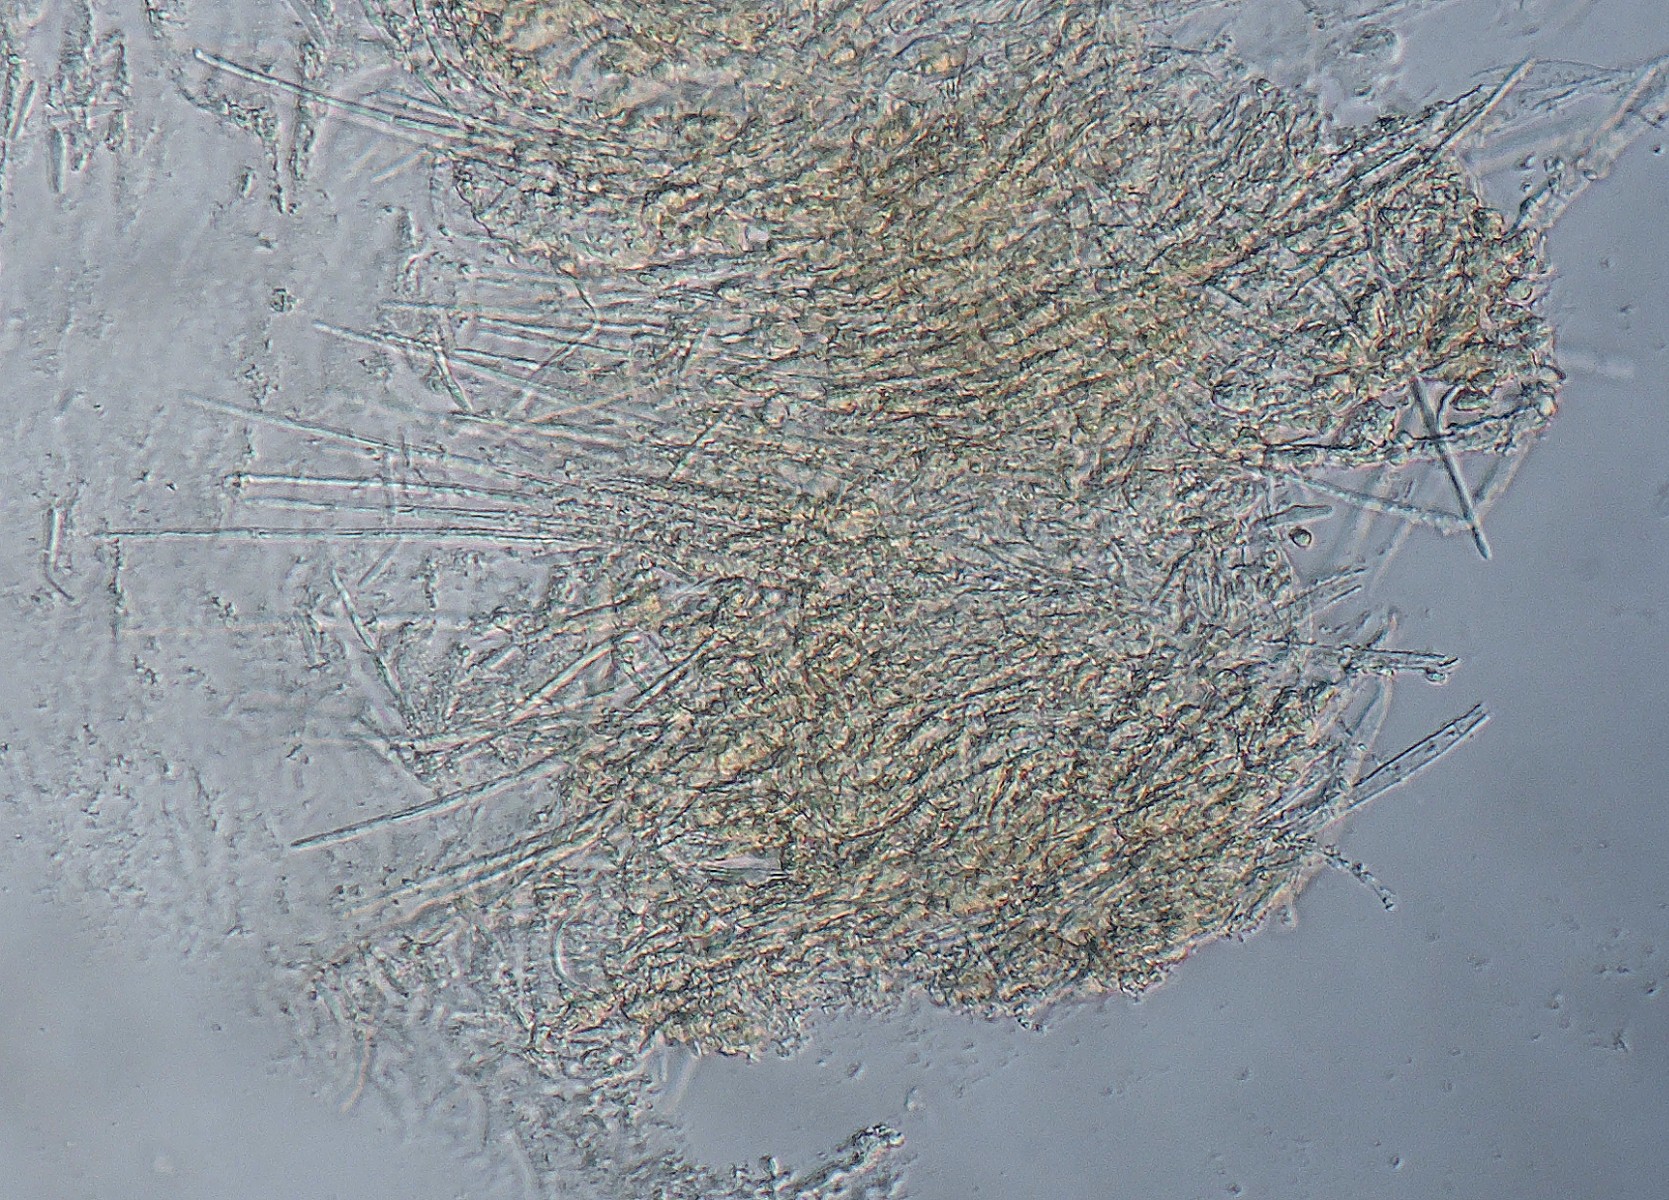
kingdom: Fungi
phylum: Ascomycota
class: Leotiomycetes
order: Helotiales
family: Lachnaceae
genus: Albotricha
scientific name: Albotricha acutipila
